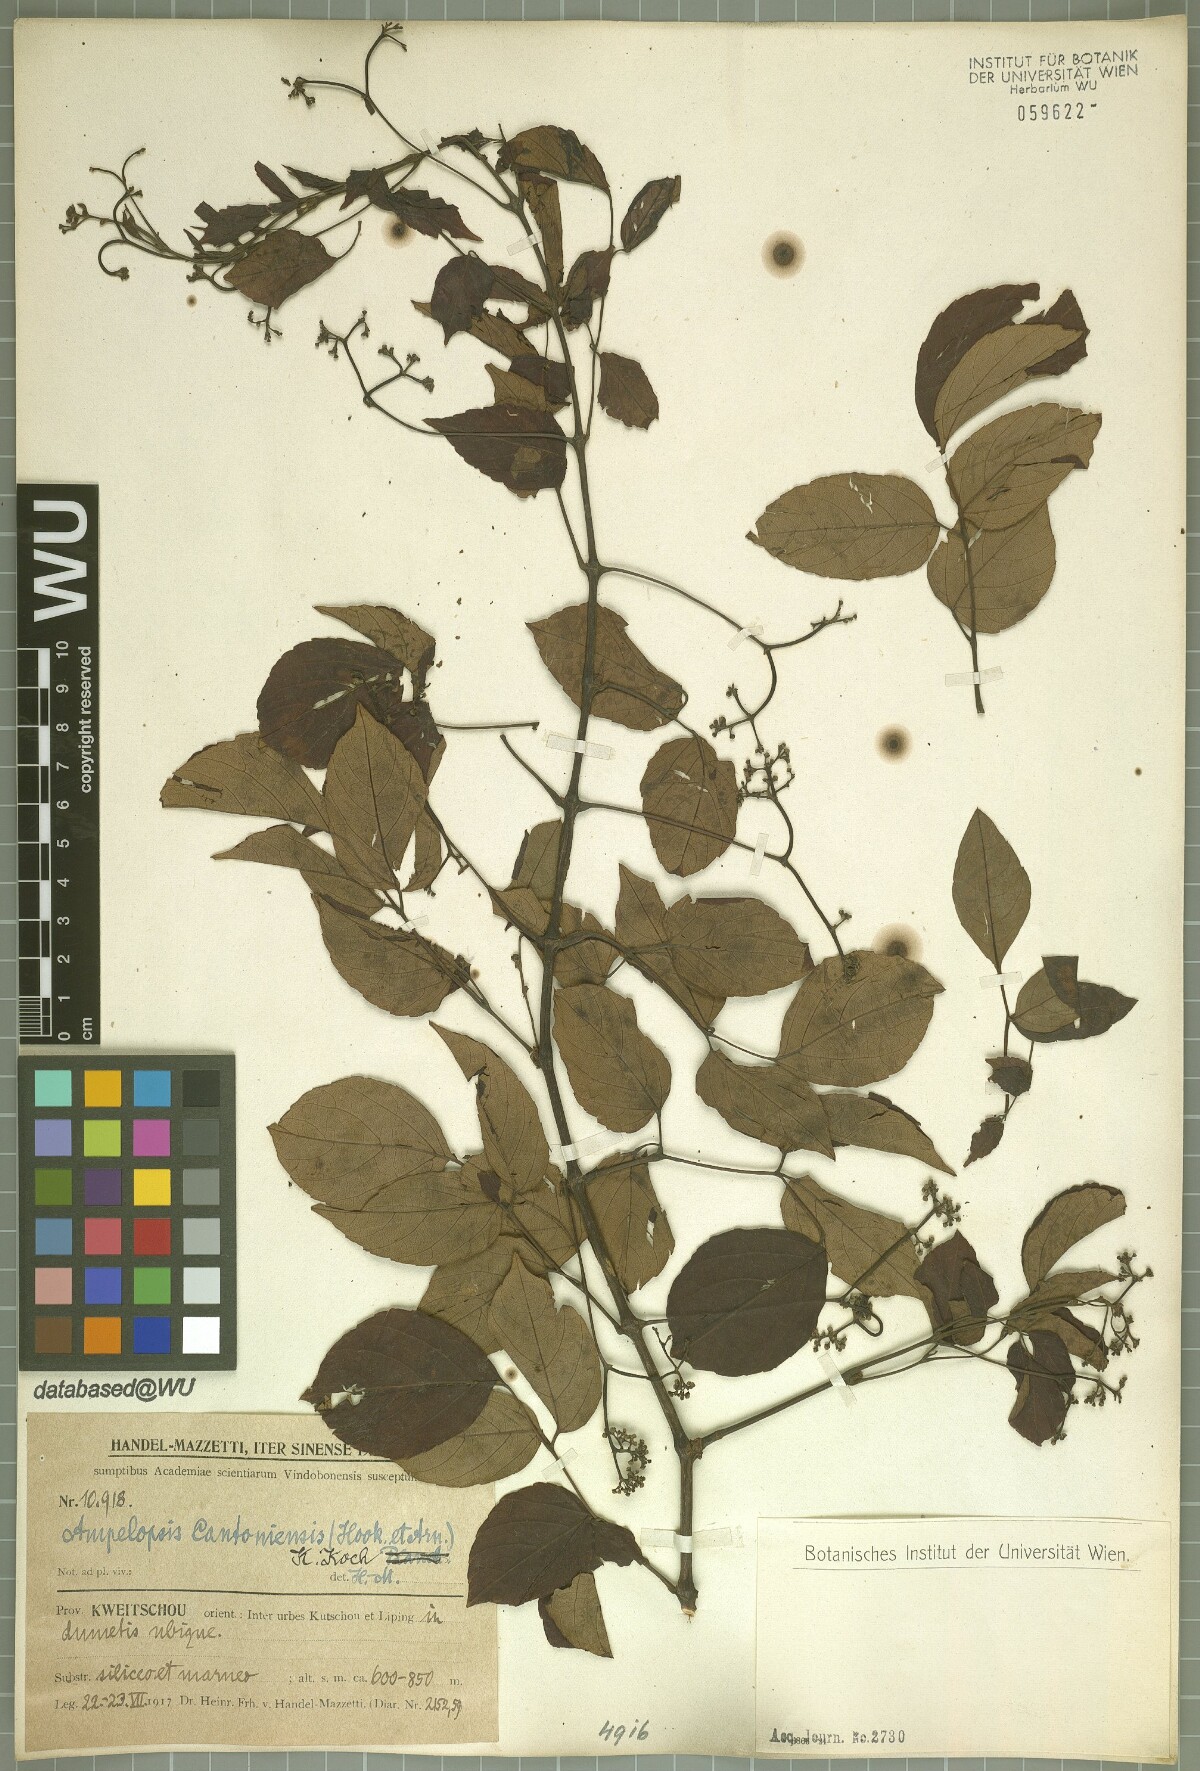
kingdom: Plantae
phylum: Tracheophyta
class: Magnoliopsida
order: Vitales
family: Vitaceae
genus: Nekemias
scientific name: Nekemias cantoniensis
